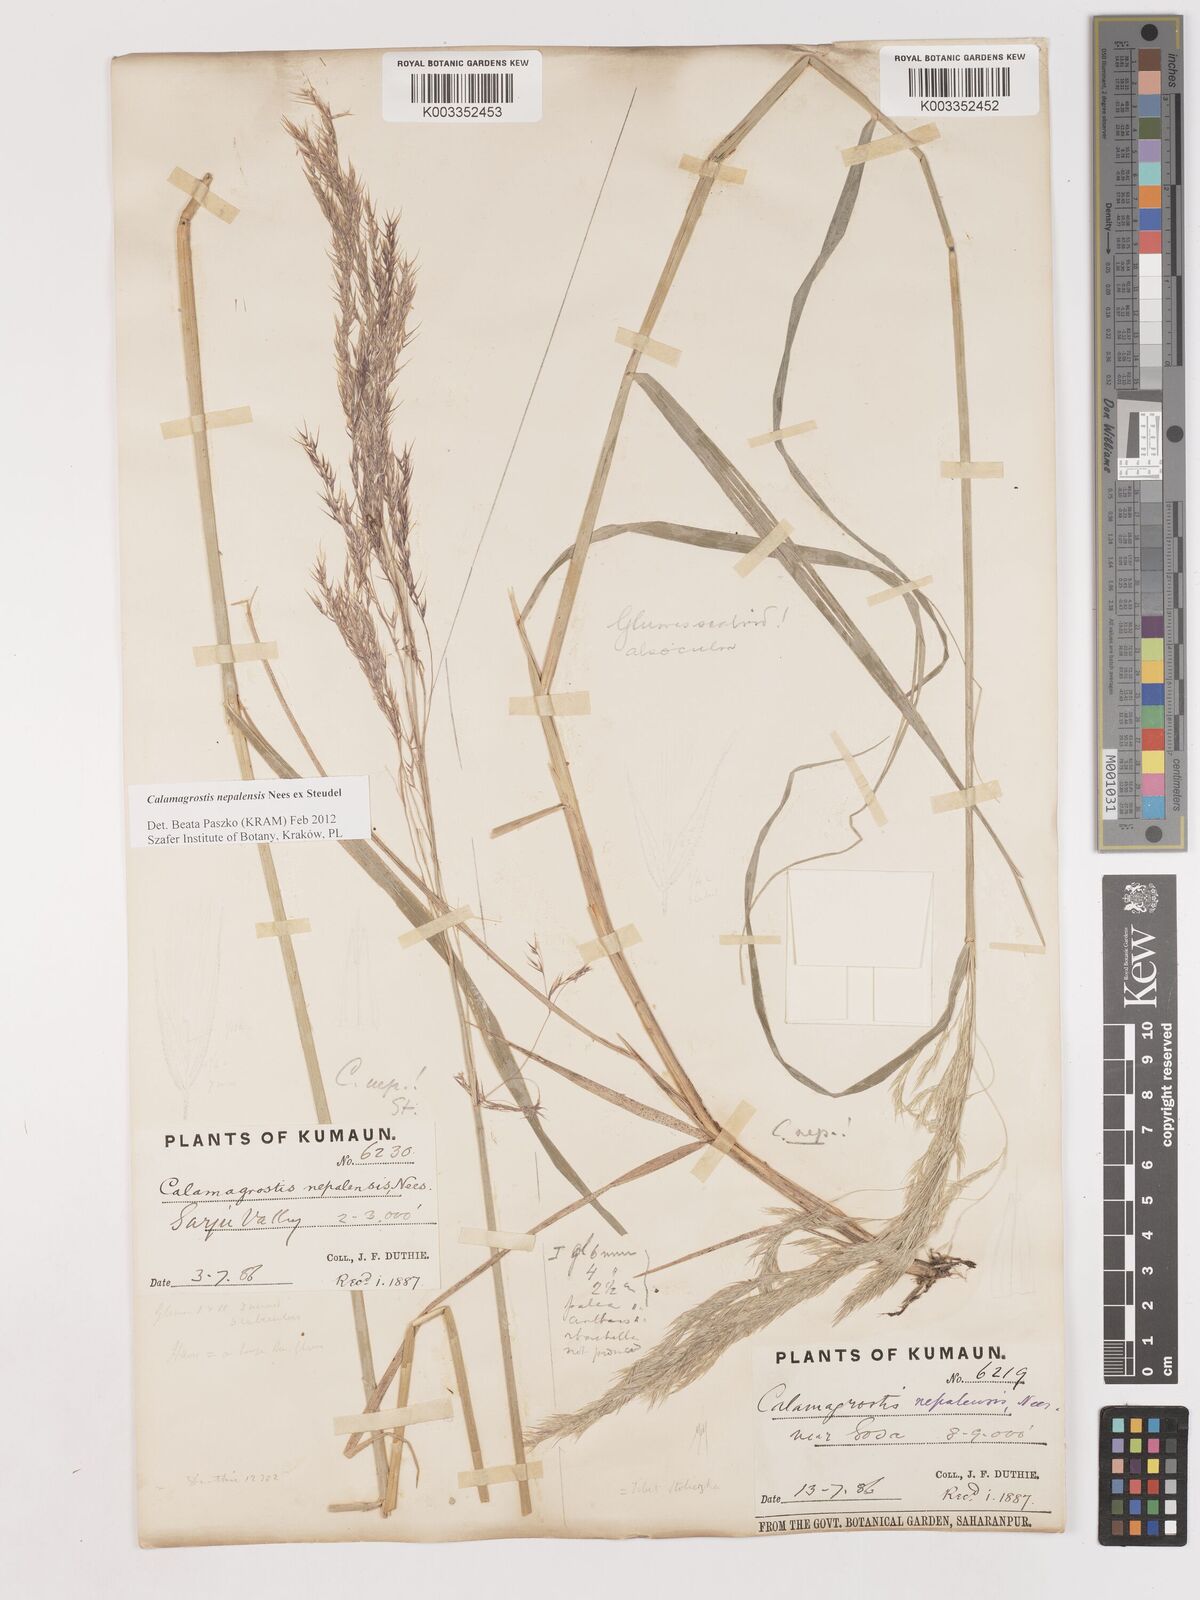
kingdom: Plantae
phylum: Tracheophyta
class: Liliopsida
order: Poales
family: Poaceae
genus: Calamagrostis
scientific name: Calamagrostis pseudophragmites
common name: Coastal small-reed
